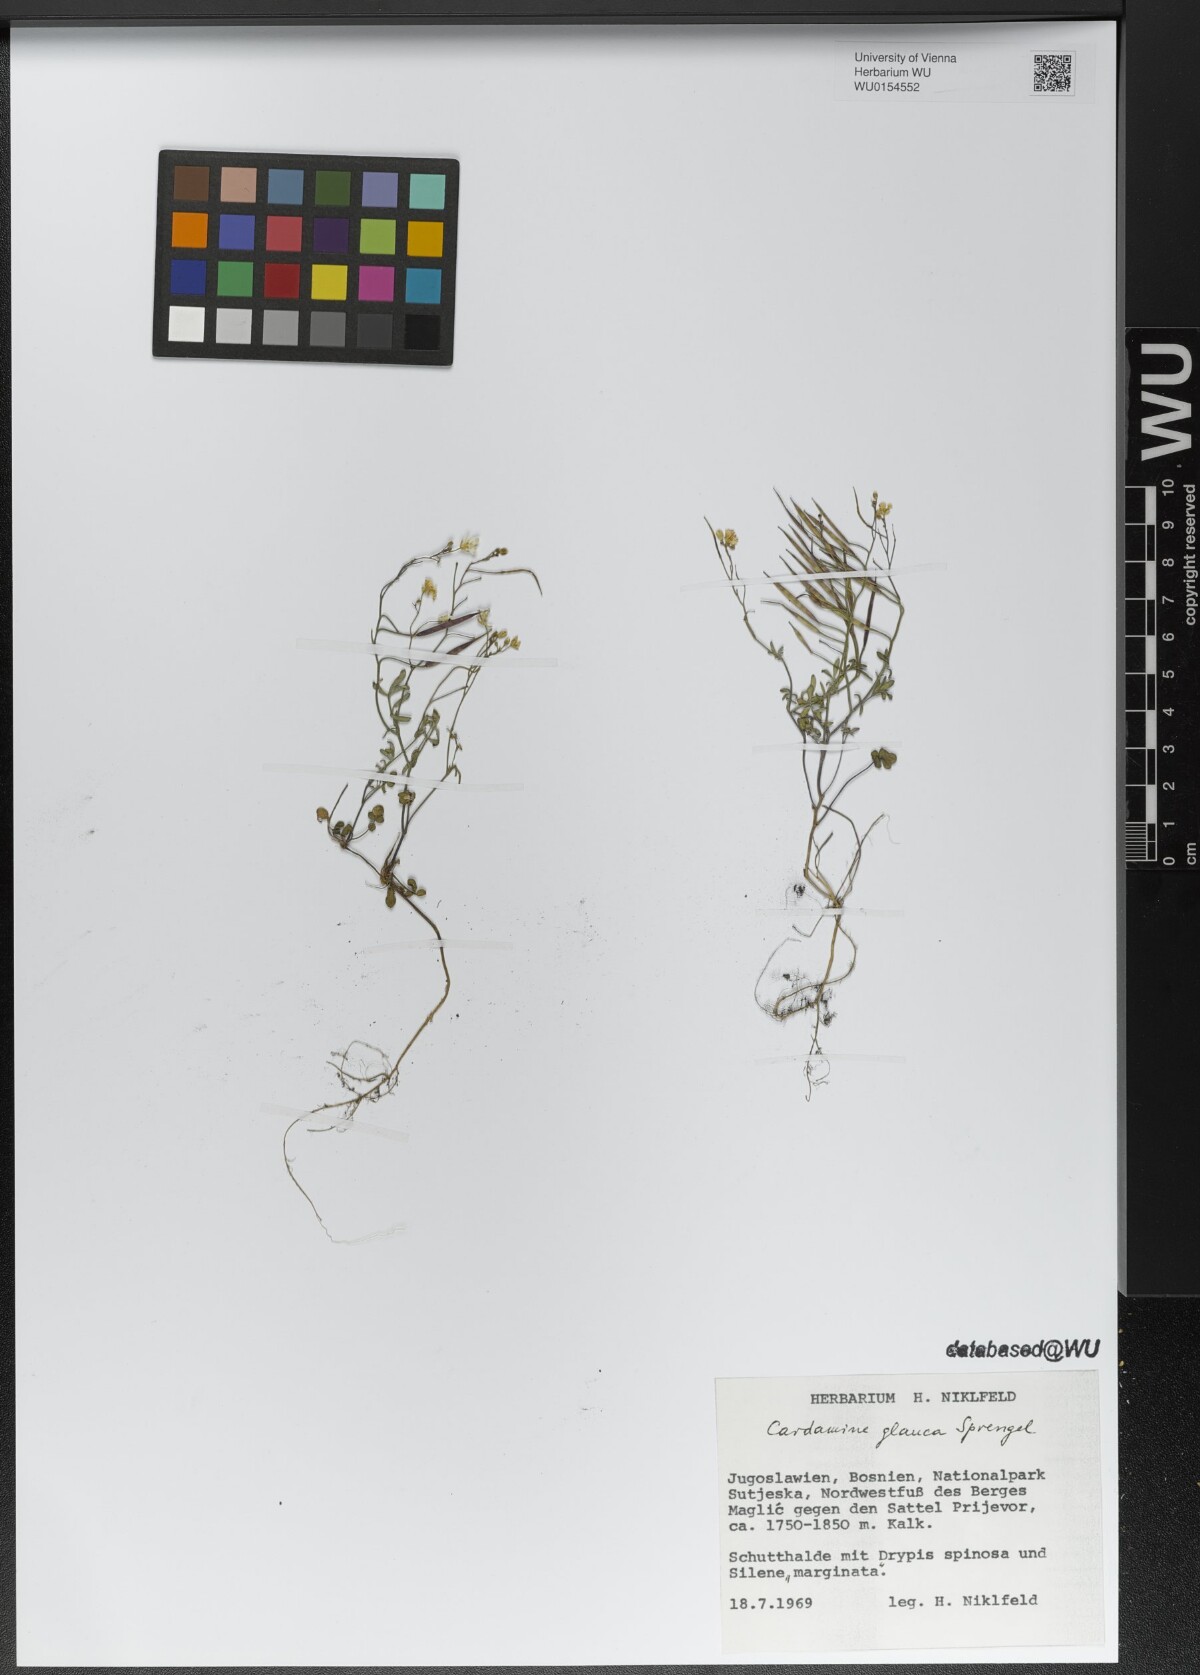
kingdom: Plantae
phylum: Tracheophyta
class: Magnoliopsida
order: Brassicales
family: Brassicaceae
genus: Cardamine
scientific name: Cardamine glauca
